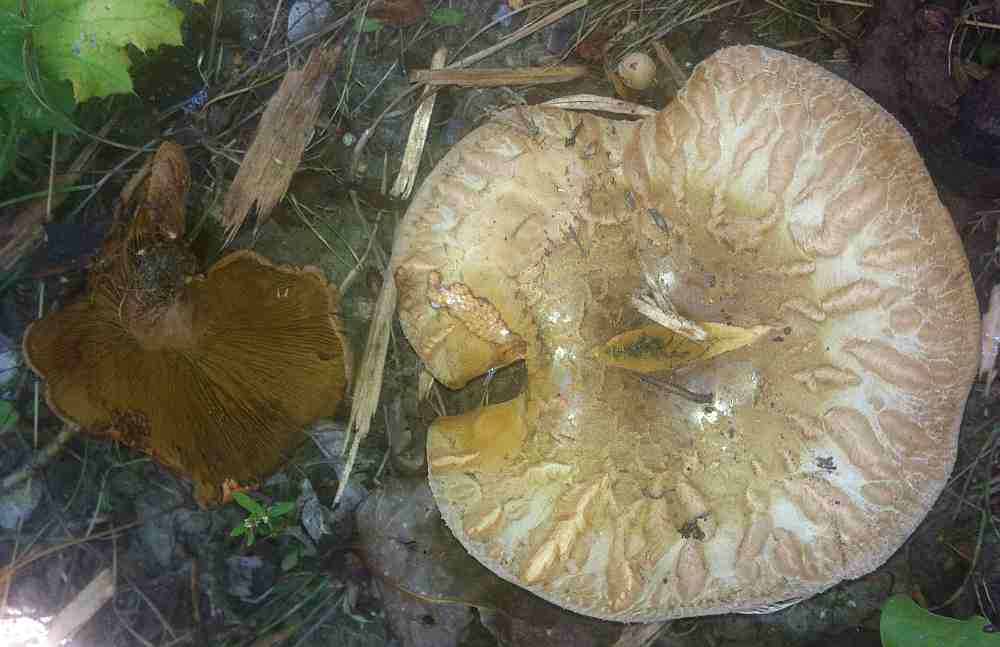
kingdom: Fungi
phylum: Basidiomycota
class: Agaricomycetes
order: Boletales
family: Paxillaceae
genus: Paxillus
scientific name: Paxillus ammoniavirescens
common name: olivensporet netbladhat
